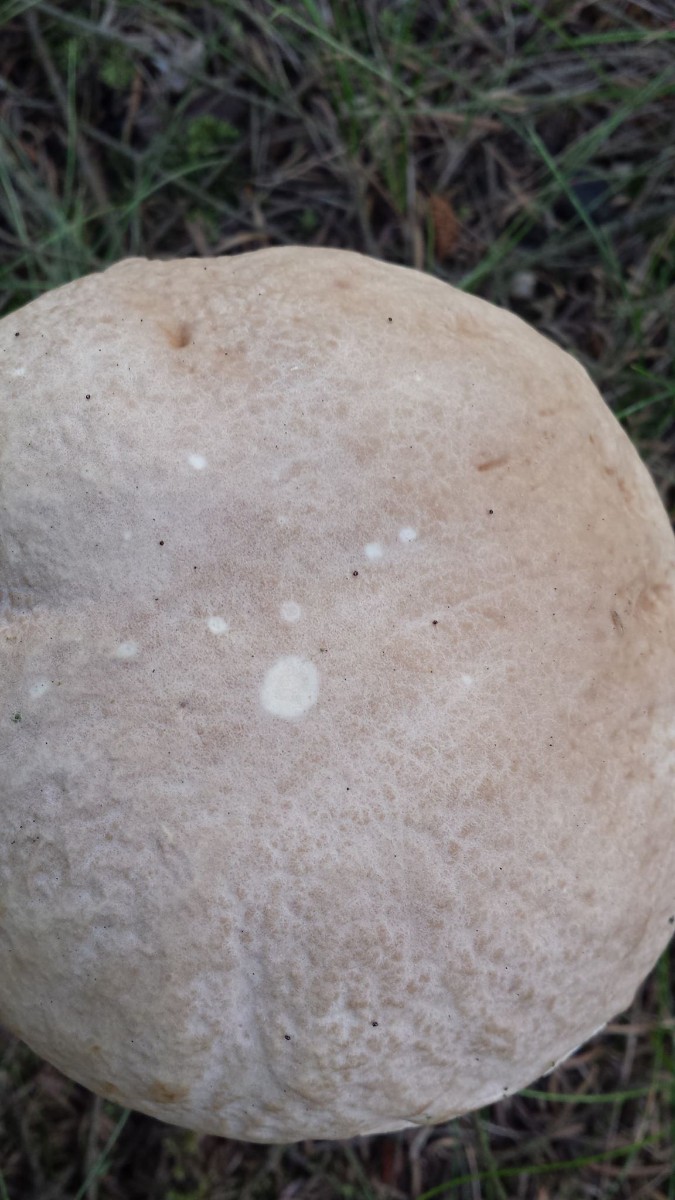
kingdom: Fungi
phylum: Basidiomycota
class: Agaricomycetes
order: Boletales
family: Boletaceae
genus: Boletus
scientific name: Boletus reticulatus
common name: sommer-rørhat
